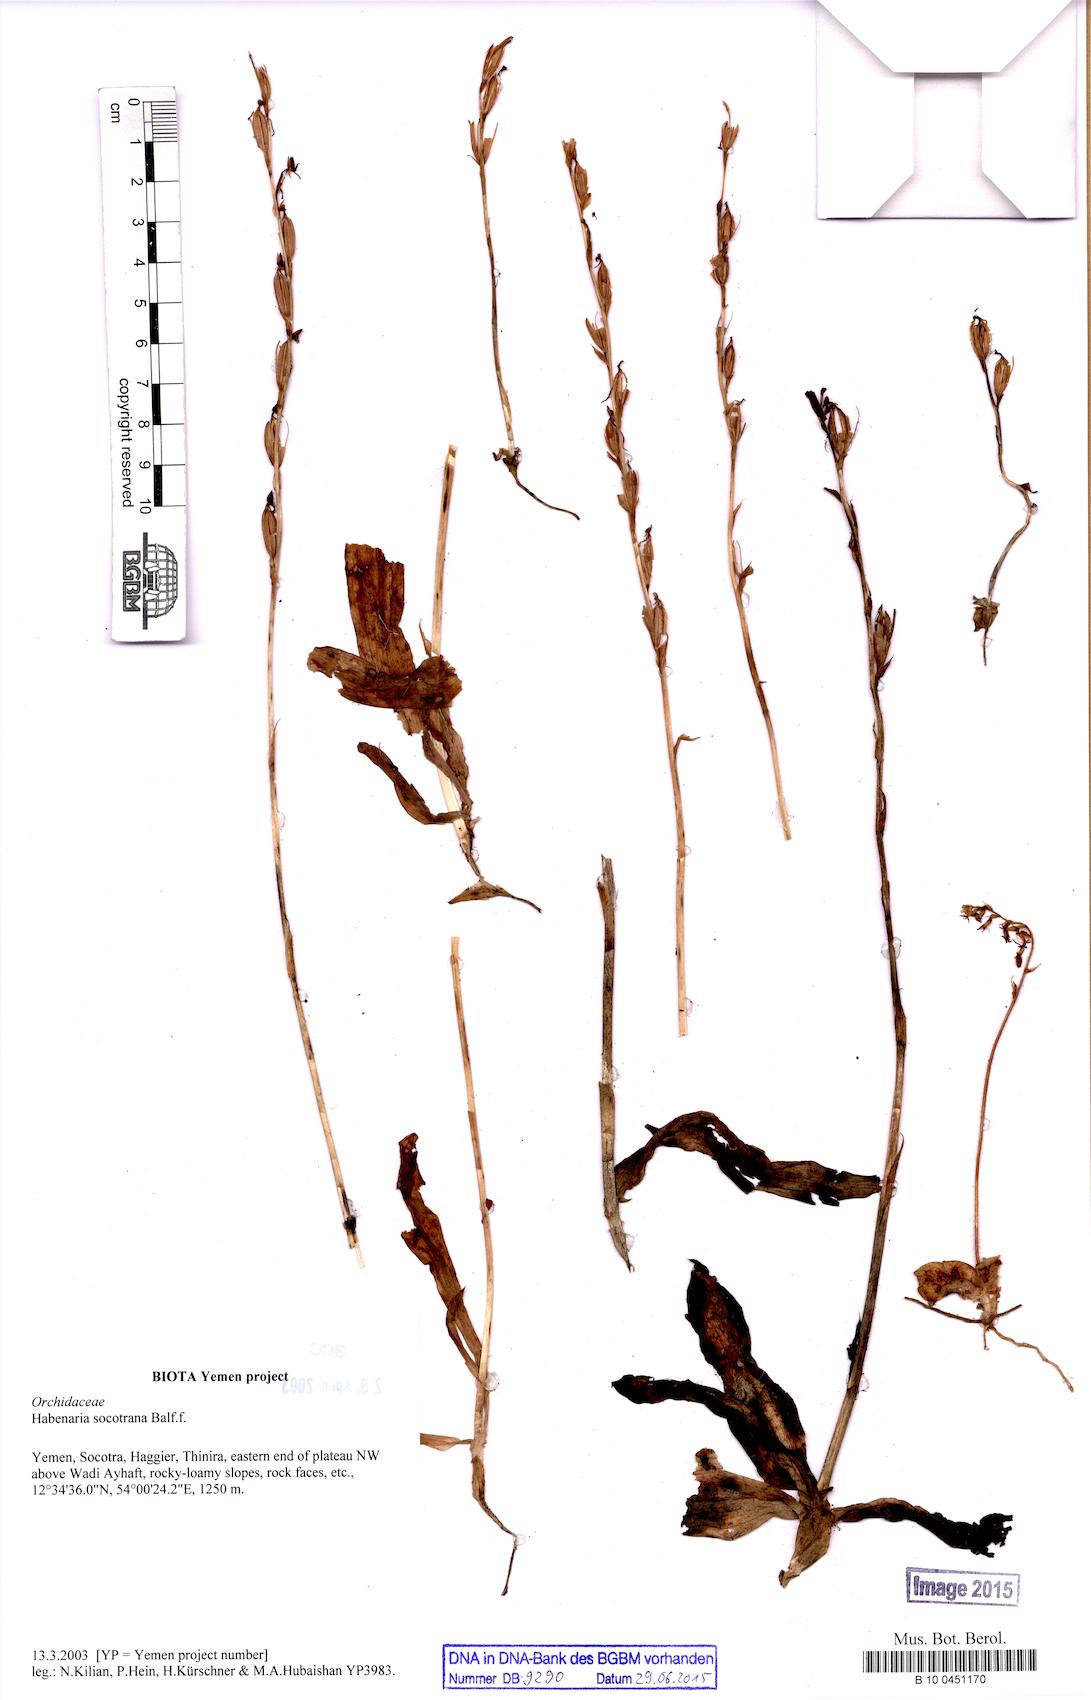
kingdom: Plantae
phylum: Tracheophyta
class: Liliopsida
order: Asparagales
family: Orchidaceae
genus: Habenaria
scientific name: Habenaria socotrana
